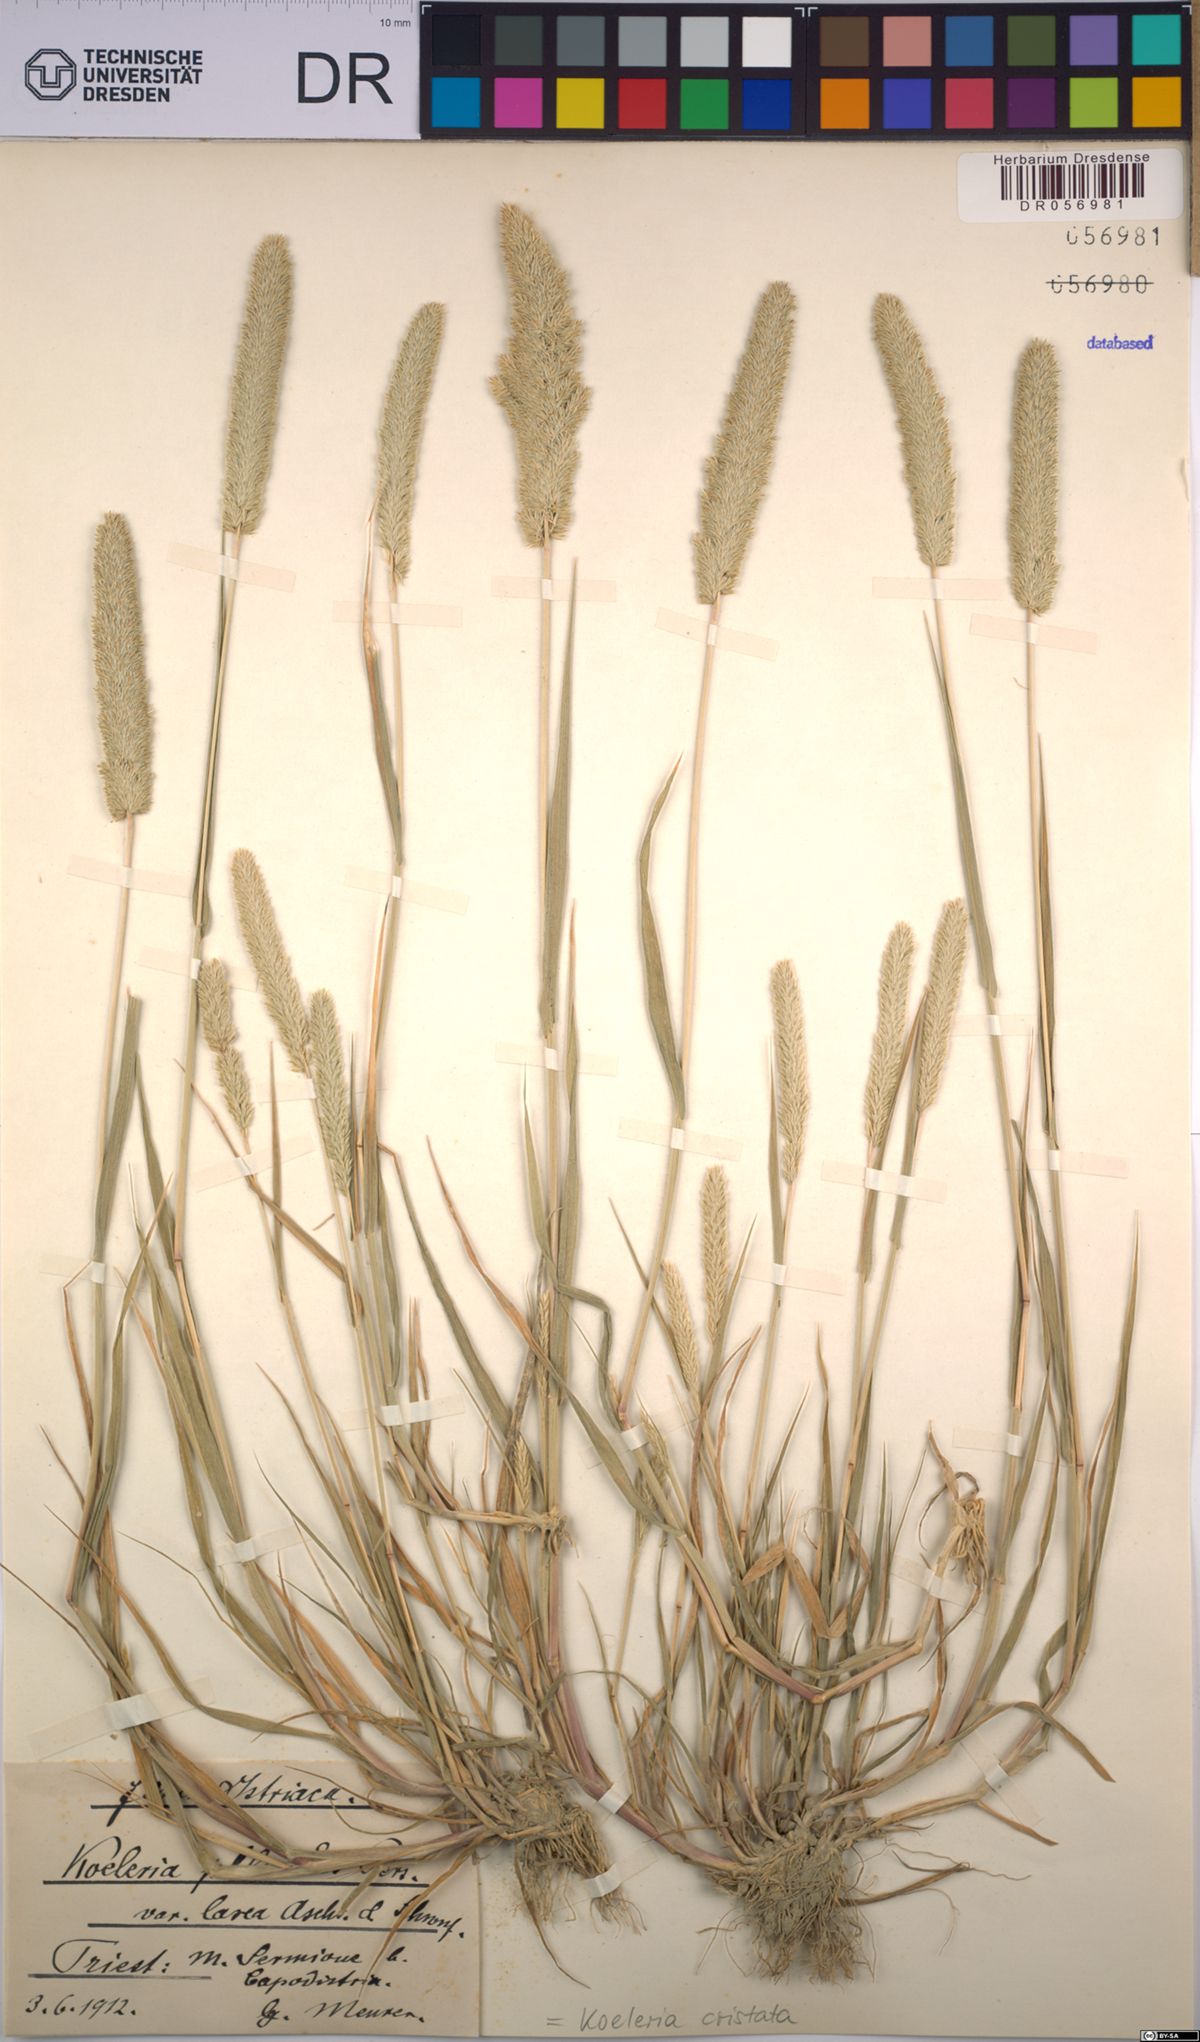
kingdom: Plantae
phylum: Tracheophyta
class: Liliopsida
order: Poales
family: Poaceae
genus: Koeleria
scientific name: Koeleria pyramidata
